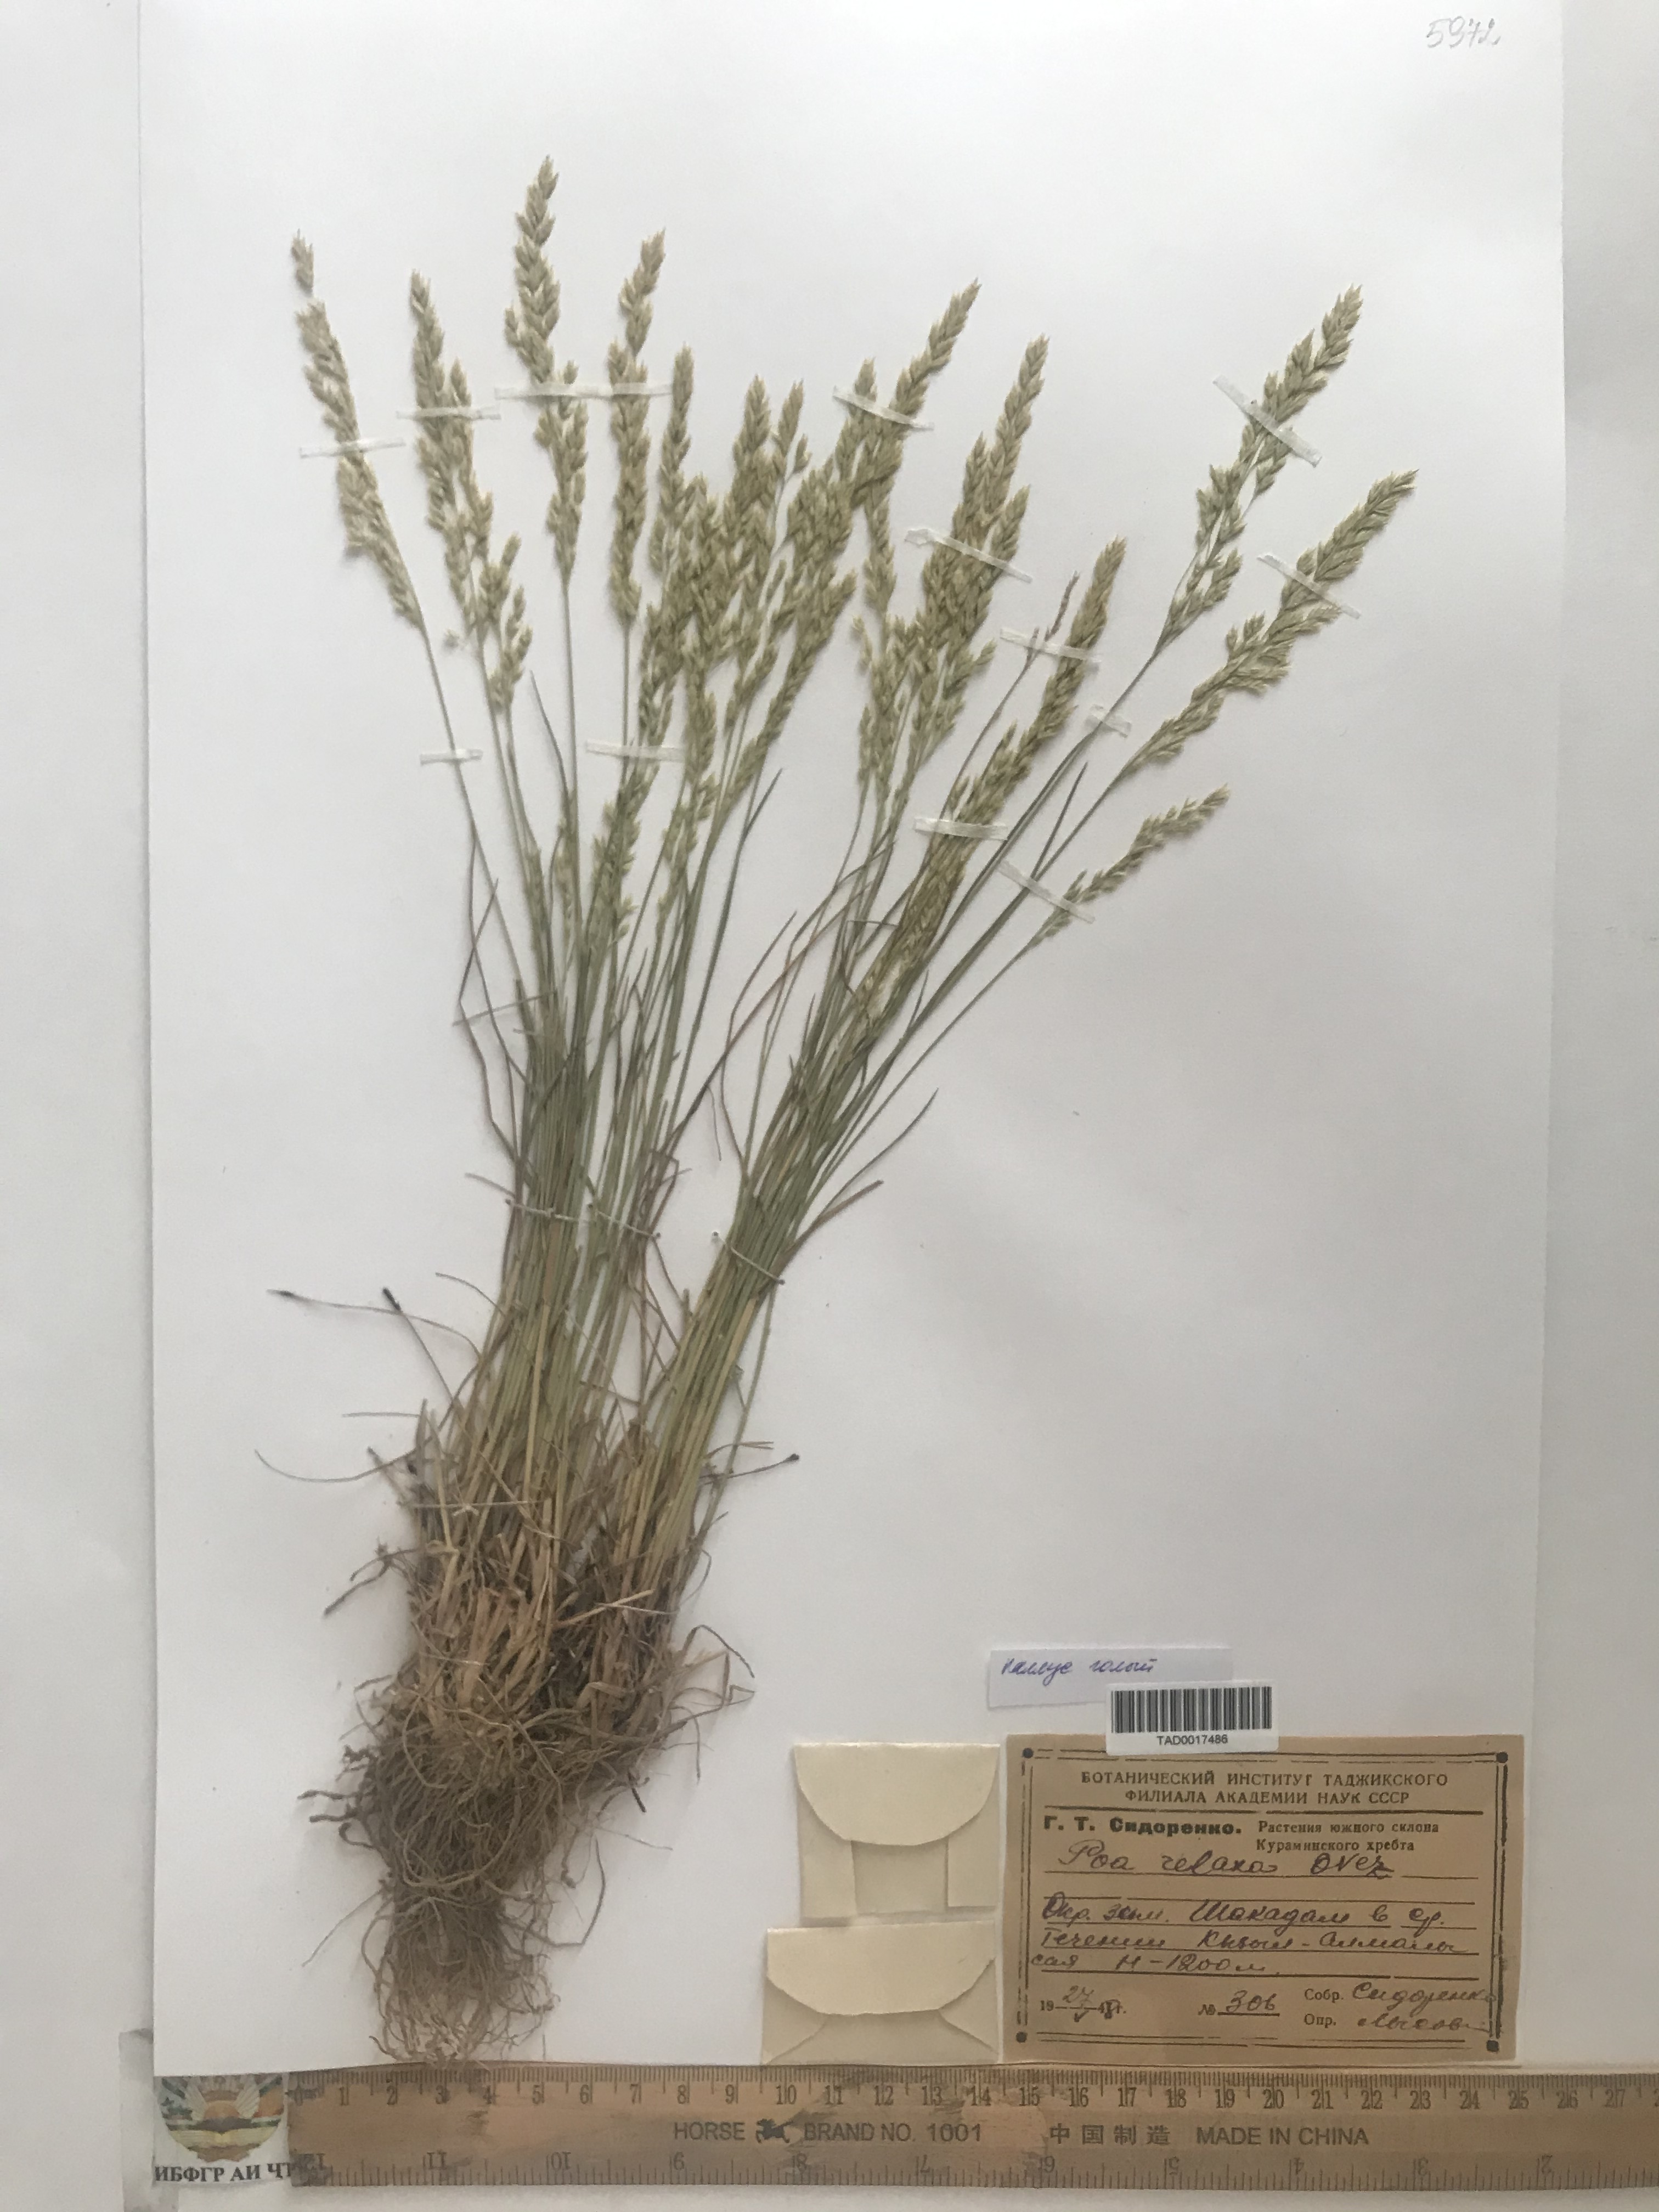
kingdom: Plantae
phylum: Tracheophyta
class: Liliopsida
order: Poales
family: Poaceae
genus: Poa
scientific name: Poa versicolor
